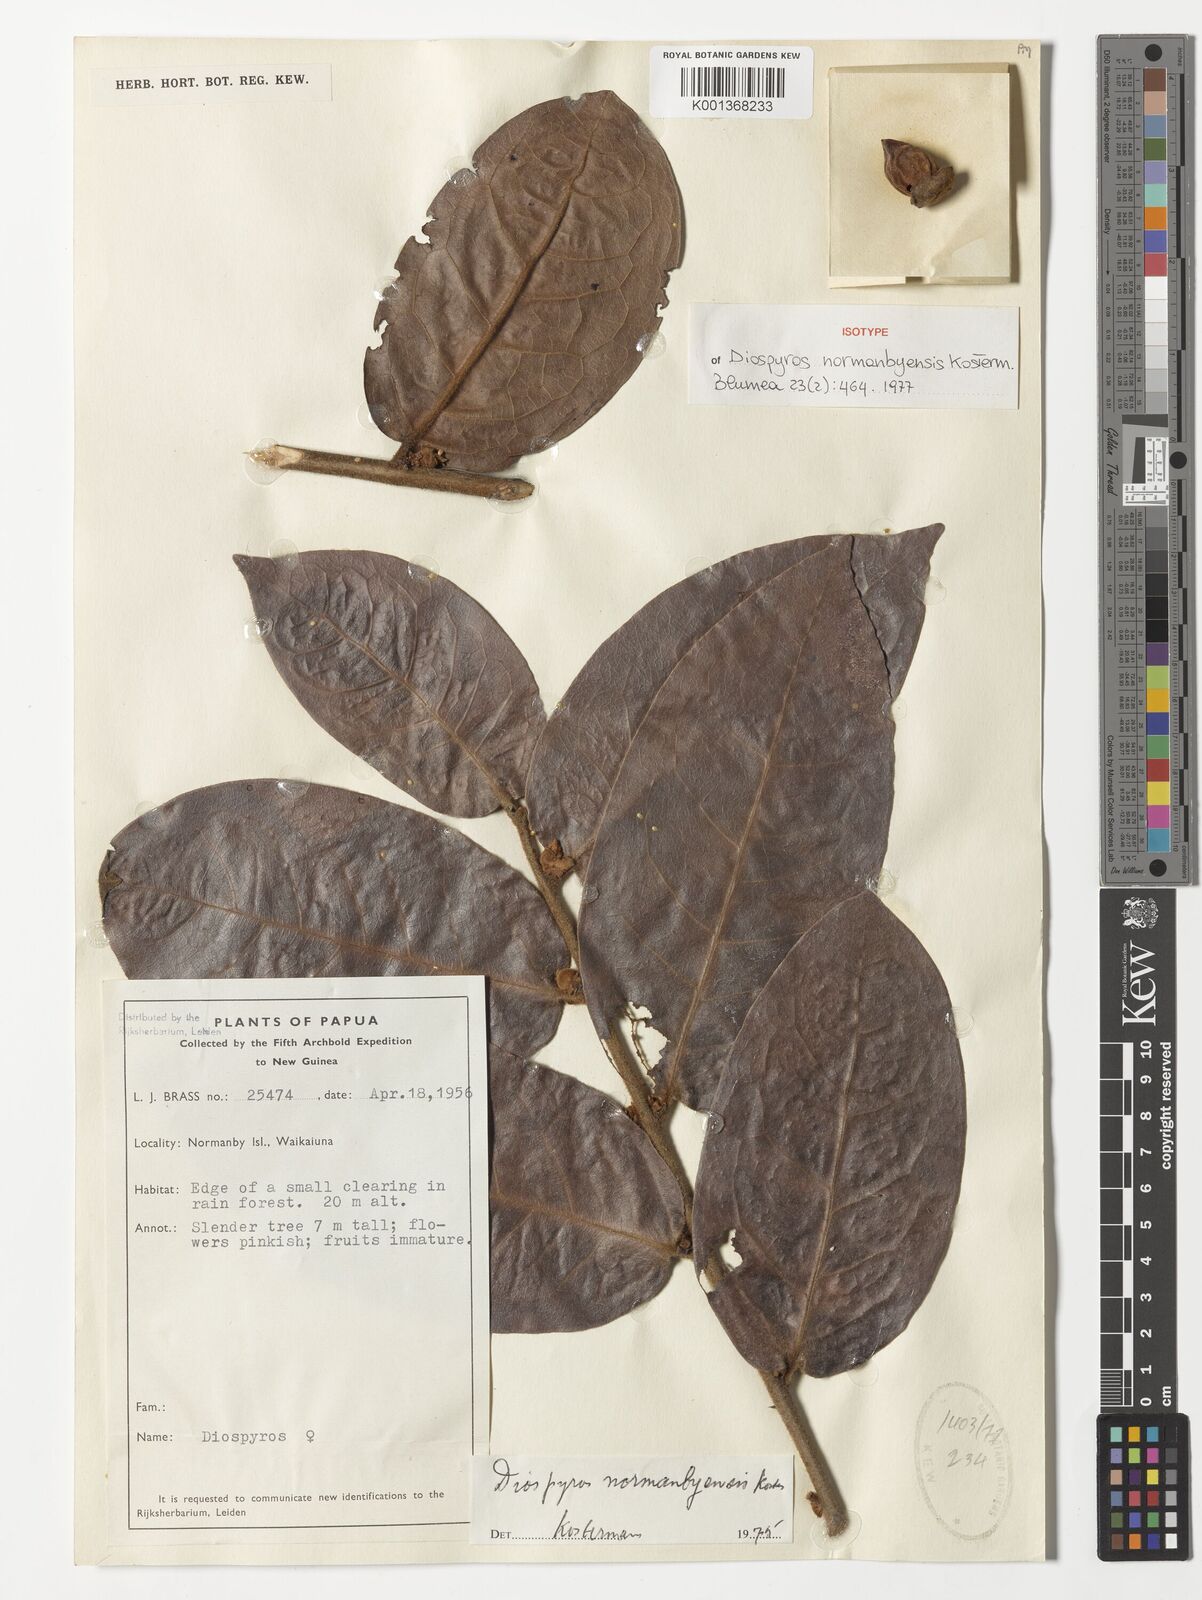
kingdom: Plantae
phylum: Tracheophyta
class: Magnoliopsida
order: Ericales
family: Ebenaceae
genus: Diospyros
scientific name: Diospyros normanbyensis
